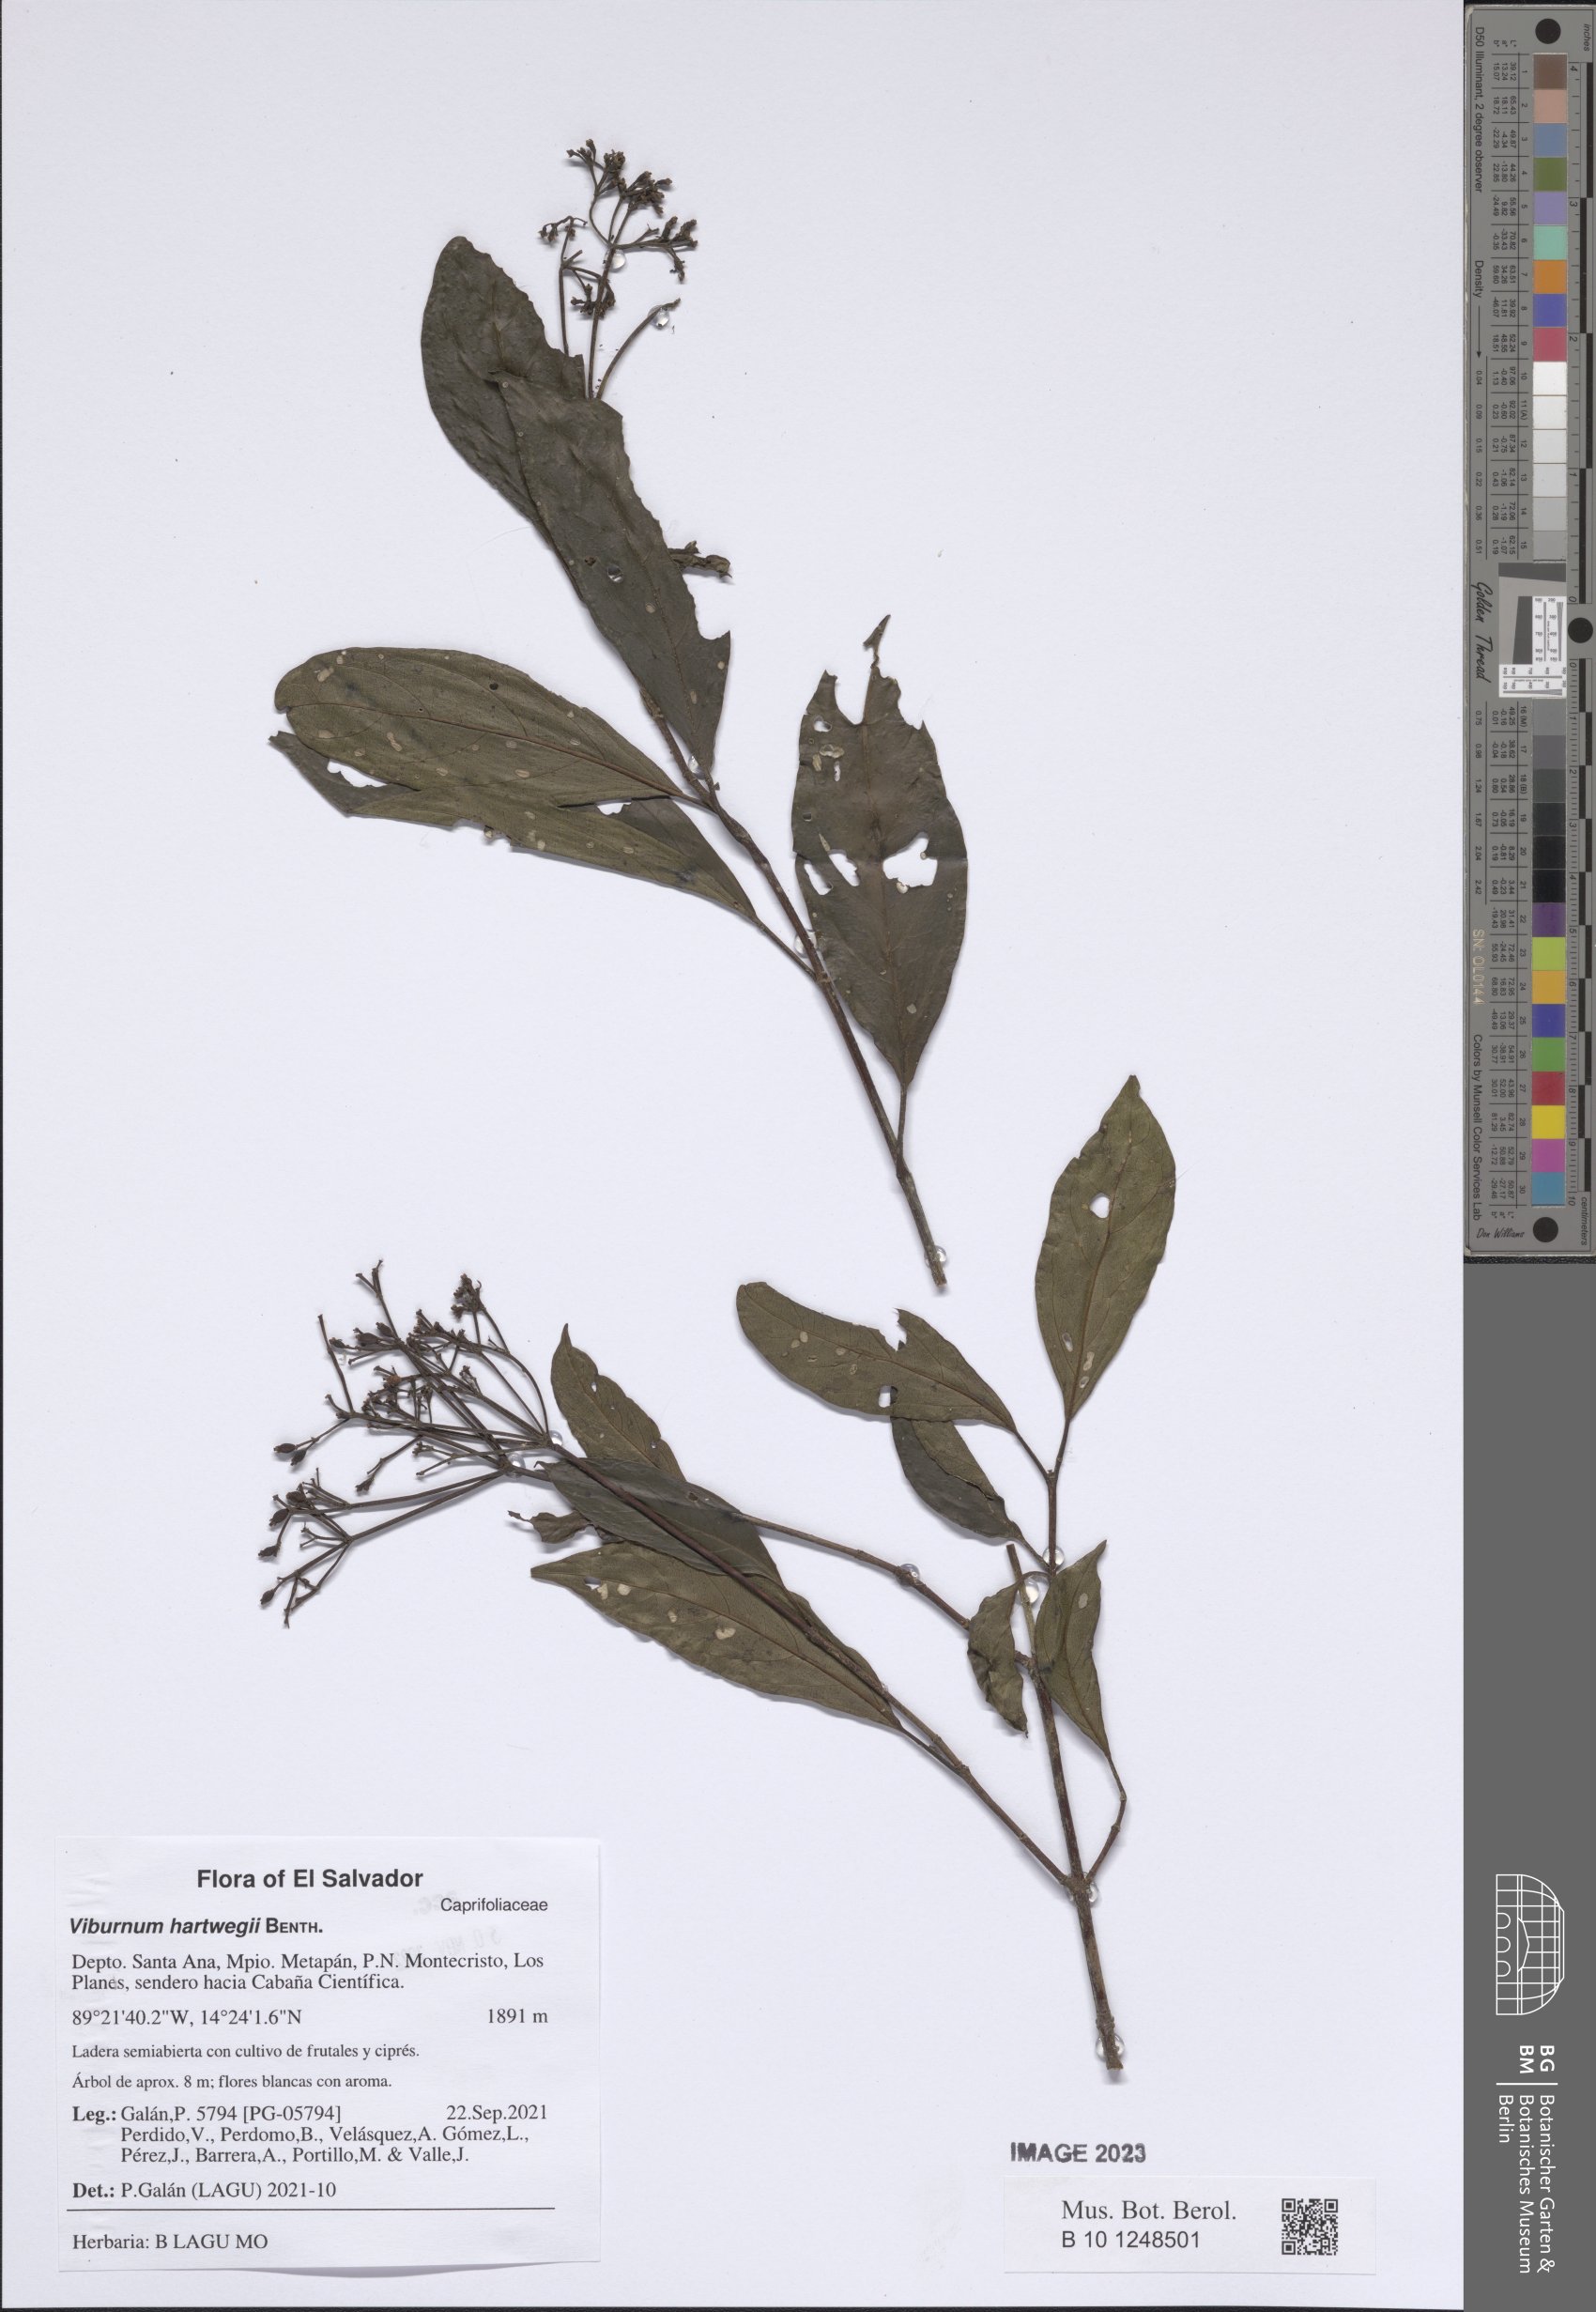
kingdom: Plantae
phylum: Tracheophyta
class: Magnoliopsida
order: Dipsacales
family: Viburnaceae
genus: Viburnum
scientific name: Viburnum hartwegii
